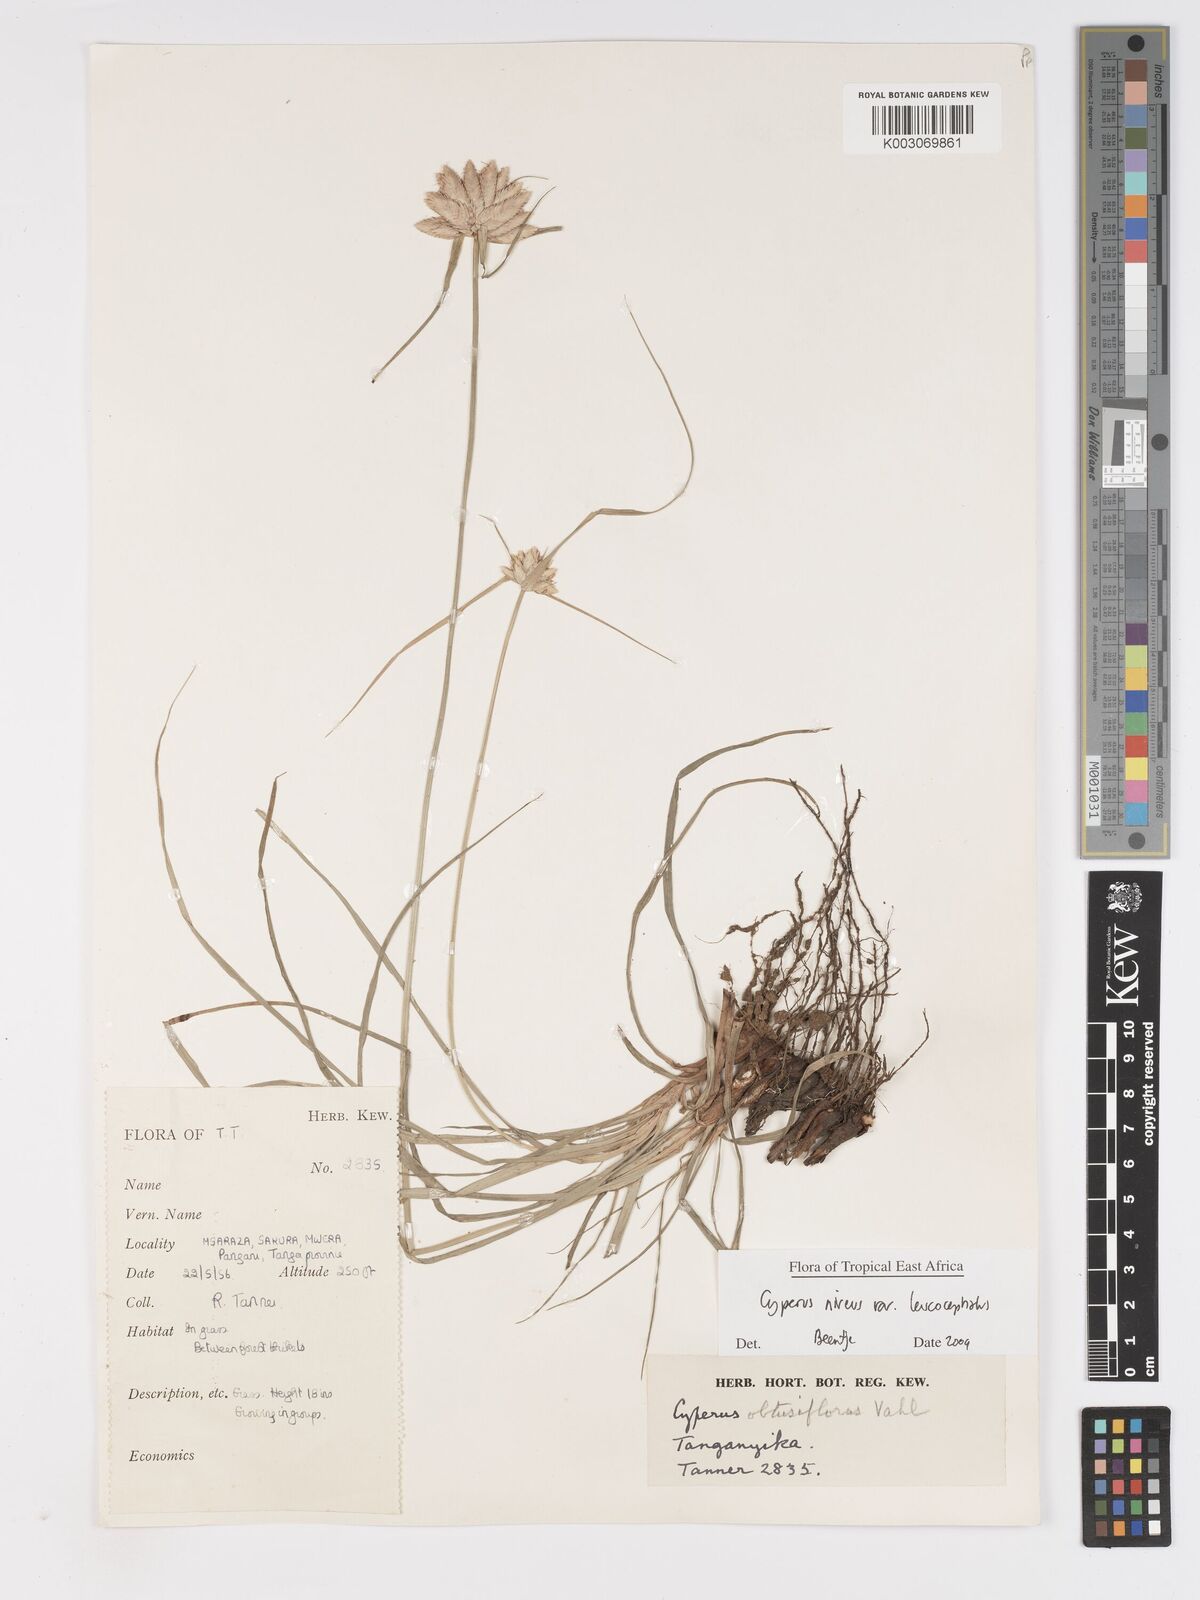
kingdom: Plantae
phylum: Tracheophyta
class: Liliopsida
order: Poales
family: Cyperaceae
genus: Cyperus
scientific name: Cyperus niveus
